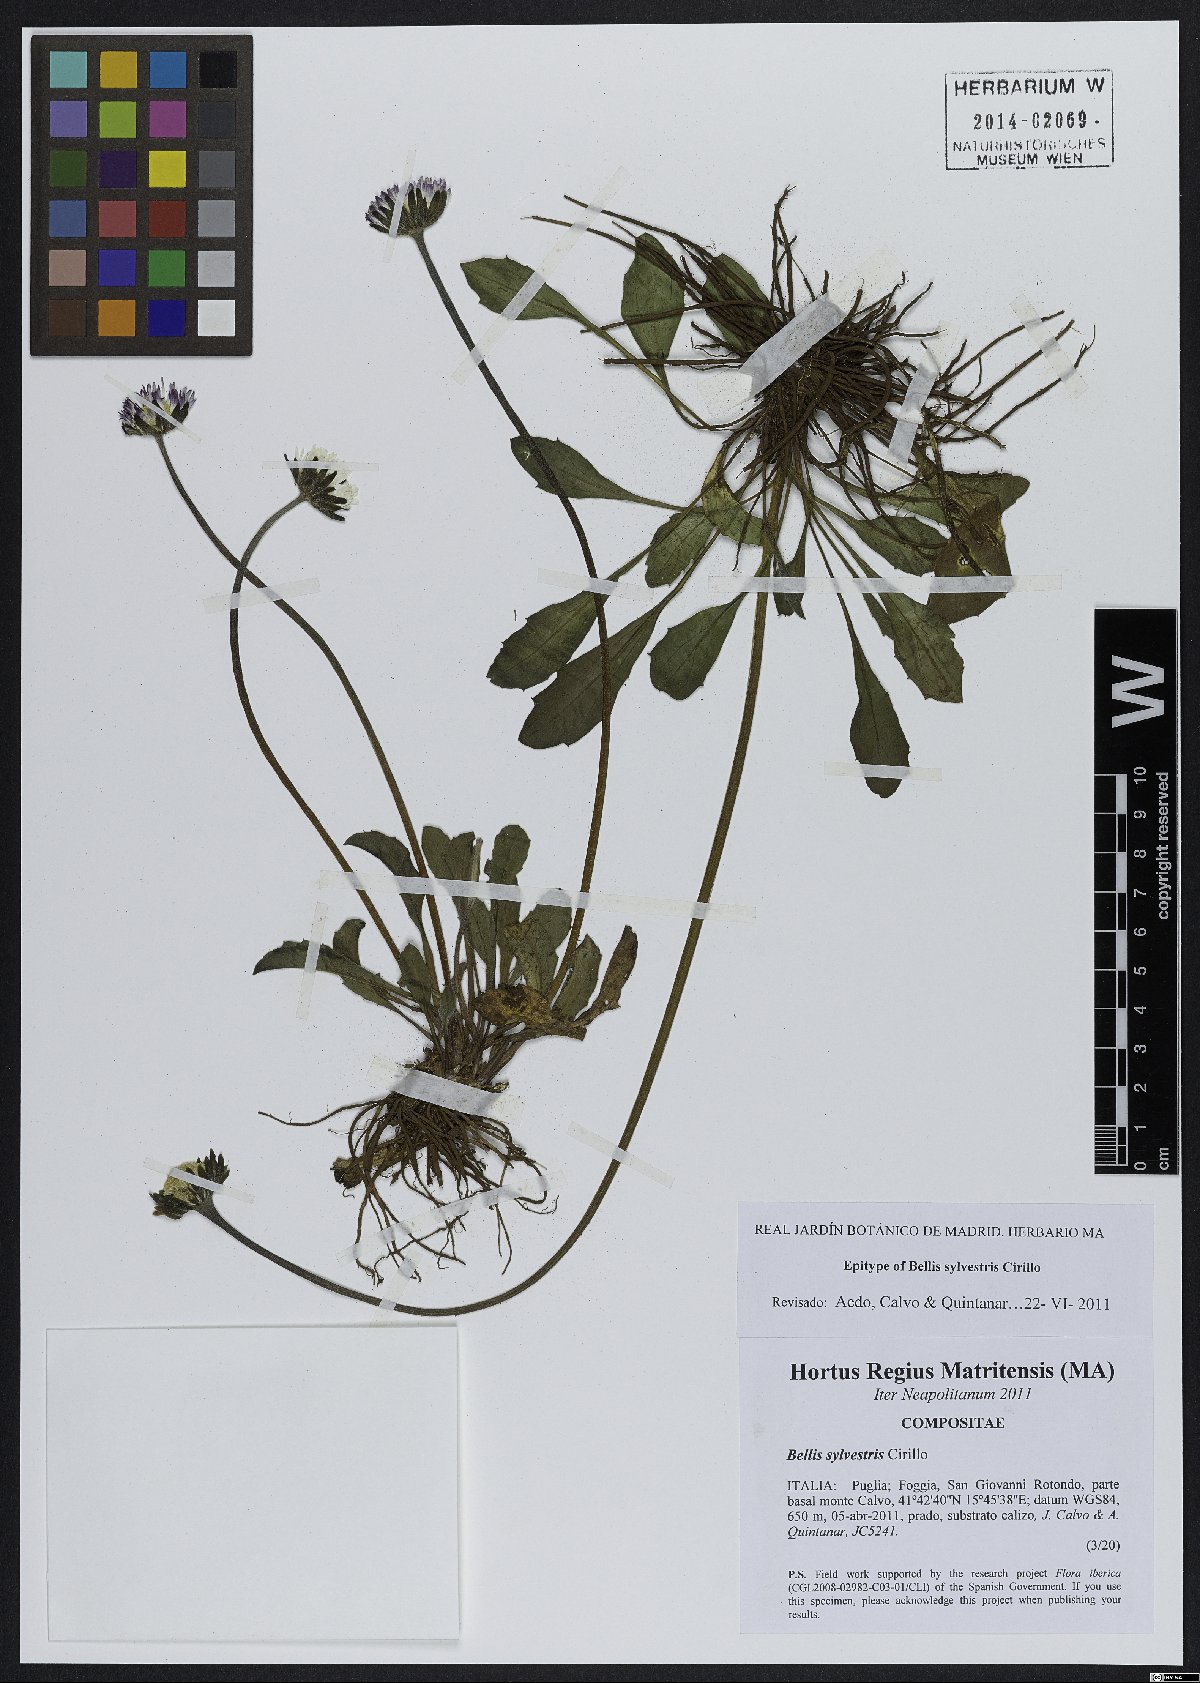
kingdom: Plantae
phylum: Tracheophyta
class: Magnoliopsida
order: Asterales
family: Asteraceae
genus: Bellis
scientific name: Bellis sylvestris
